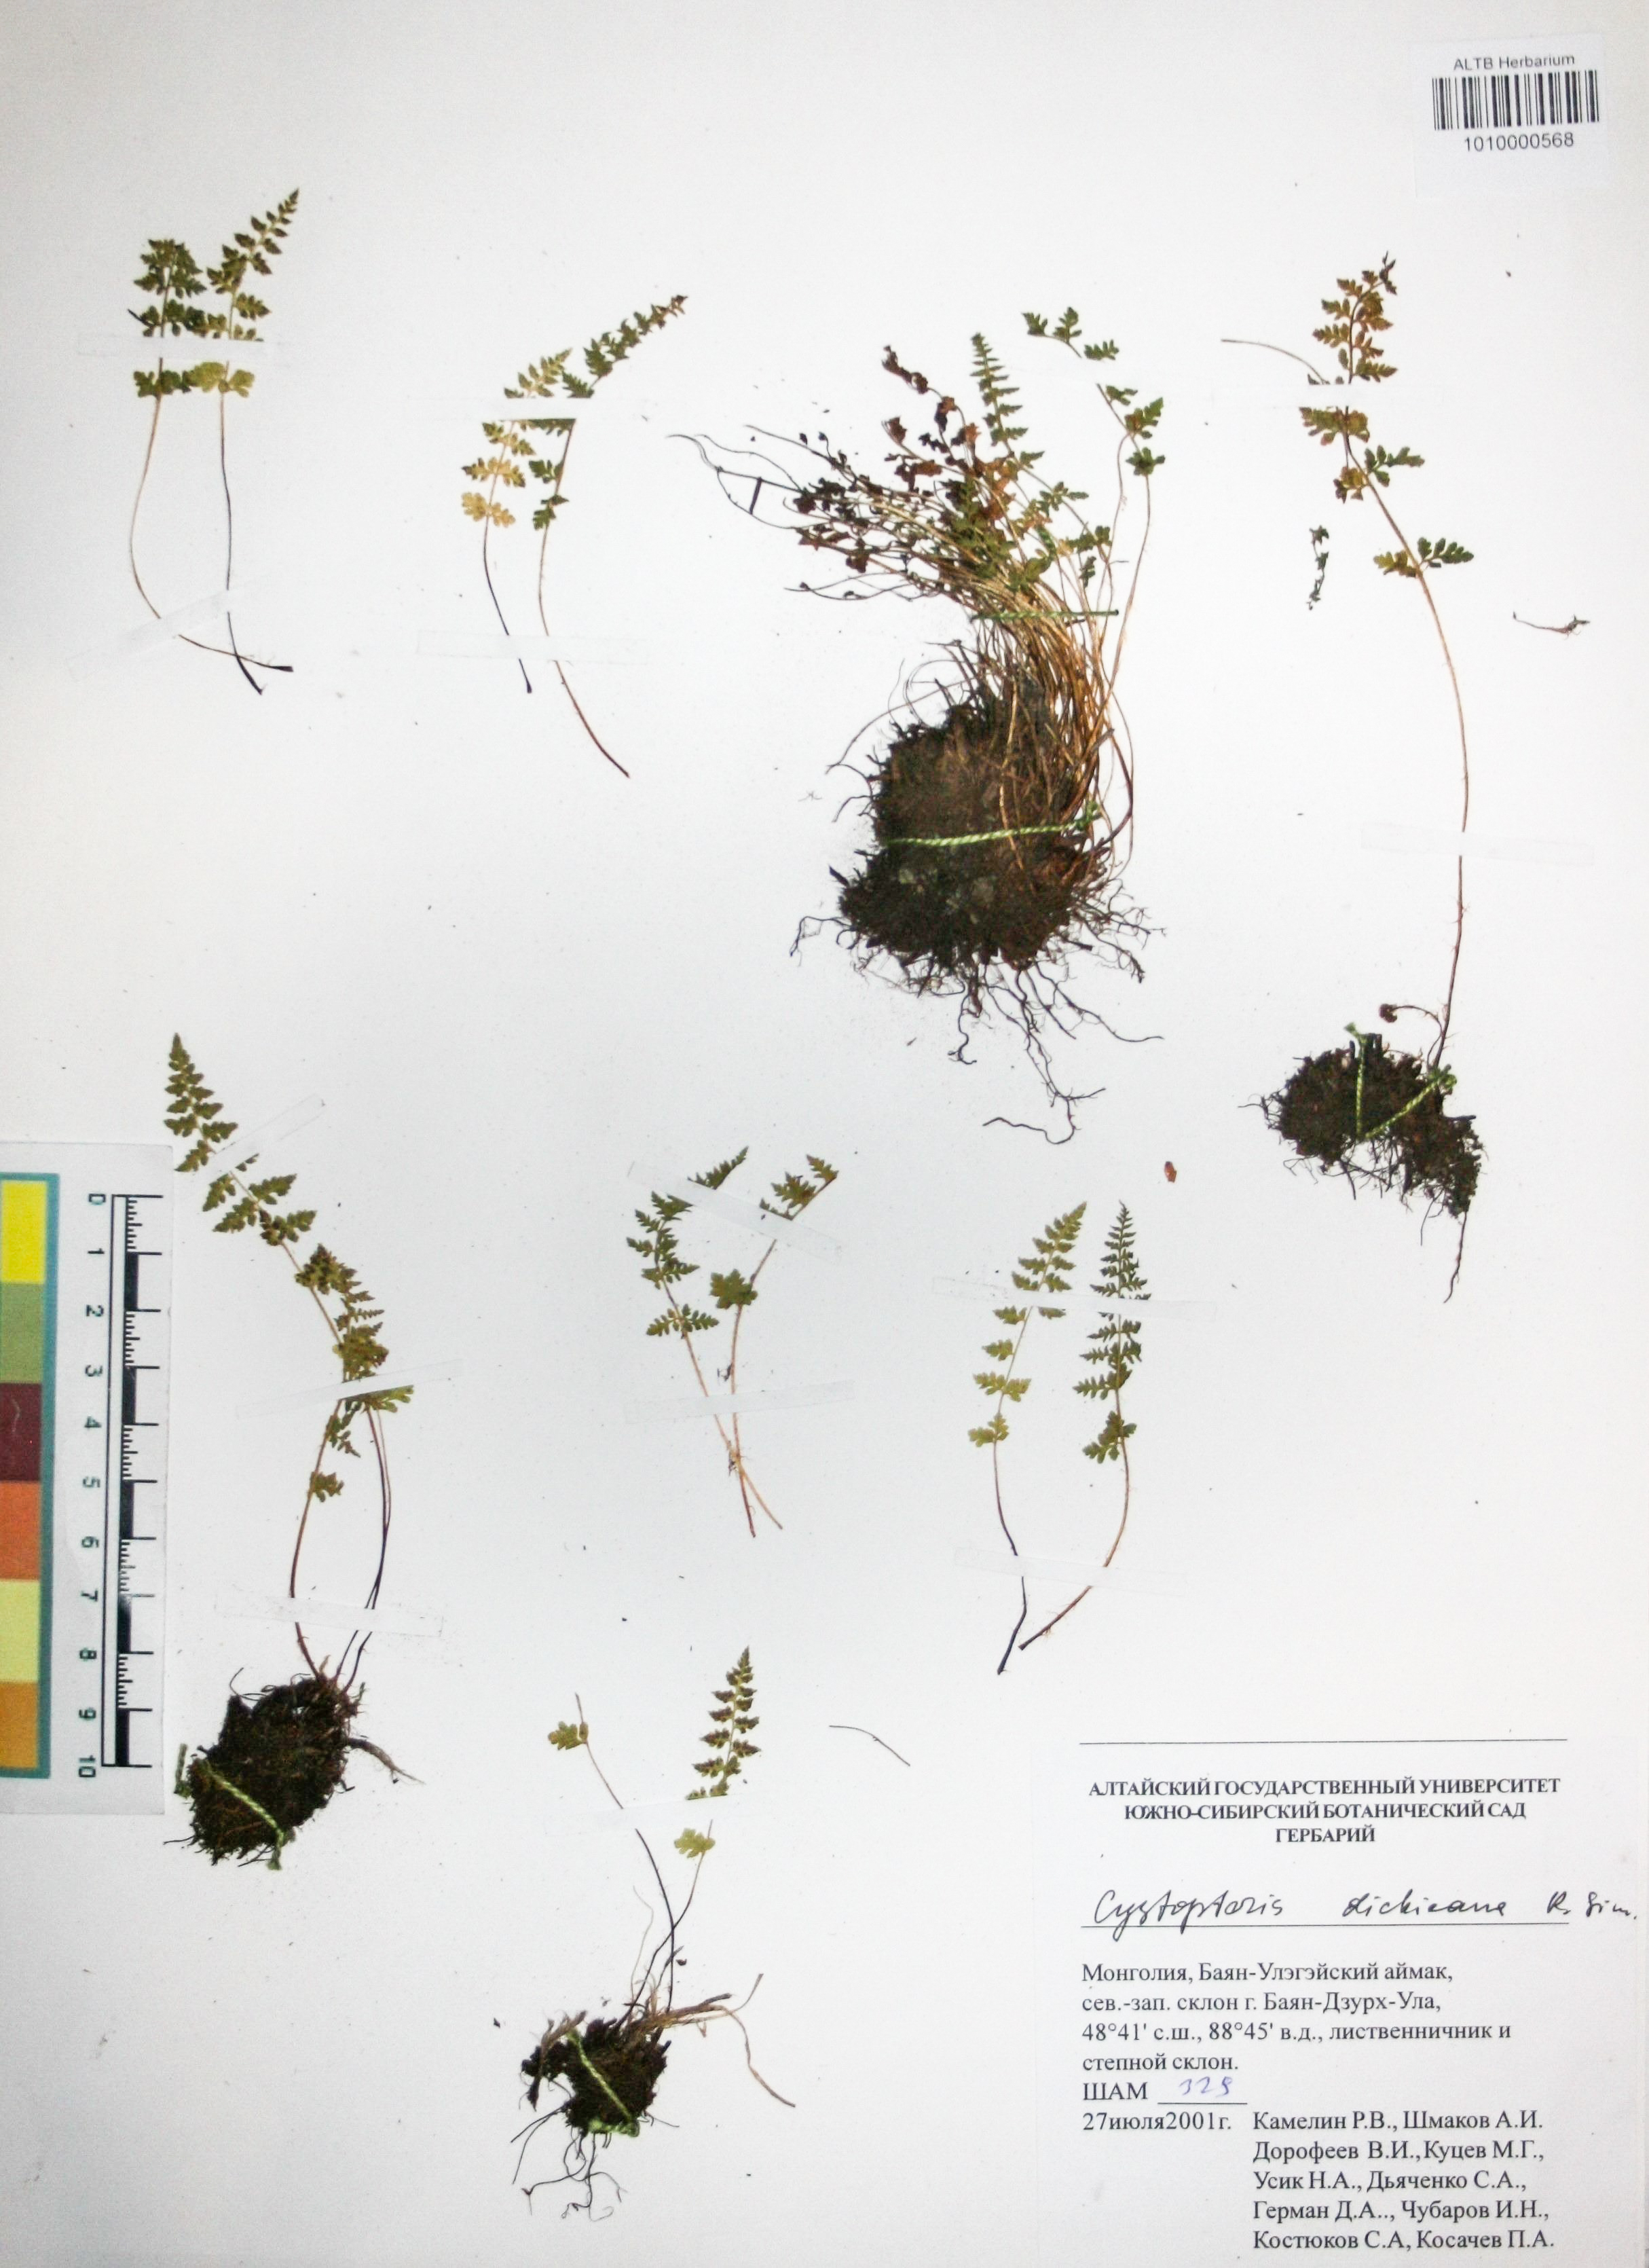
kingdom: Plantae
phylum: Tracheophyta
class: Polypodiopsida
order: Polypodiales
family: Cystopteridaceae
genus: Cystopteris
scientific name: Cystopteris dickieana
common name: Dickie's bladder-fern
